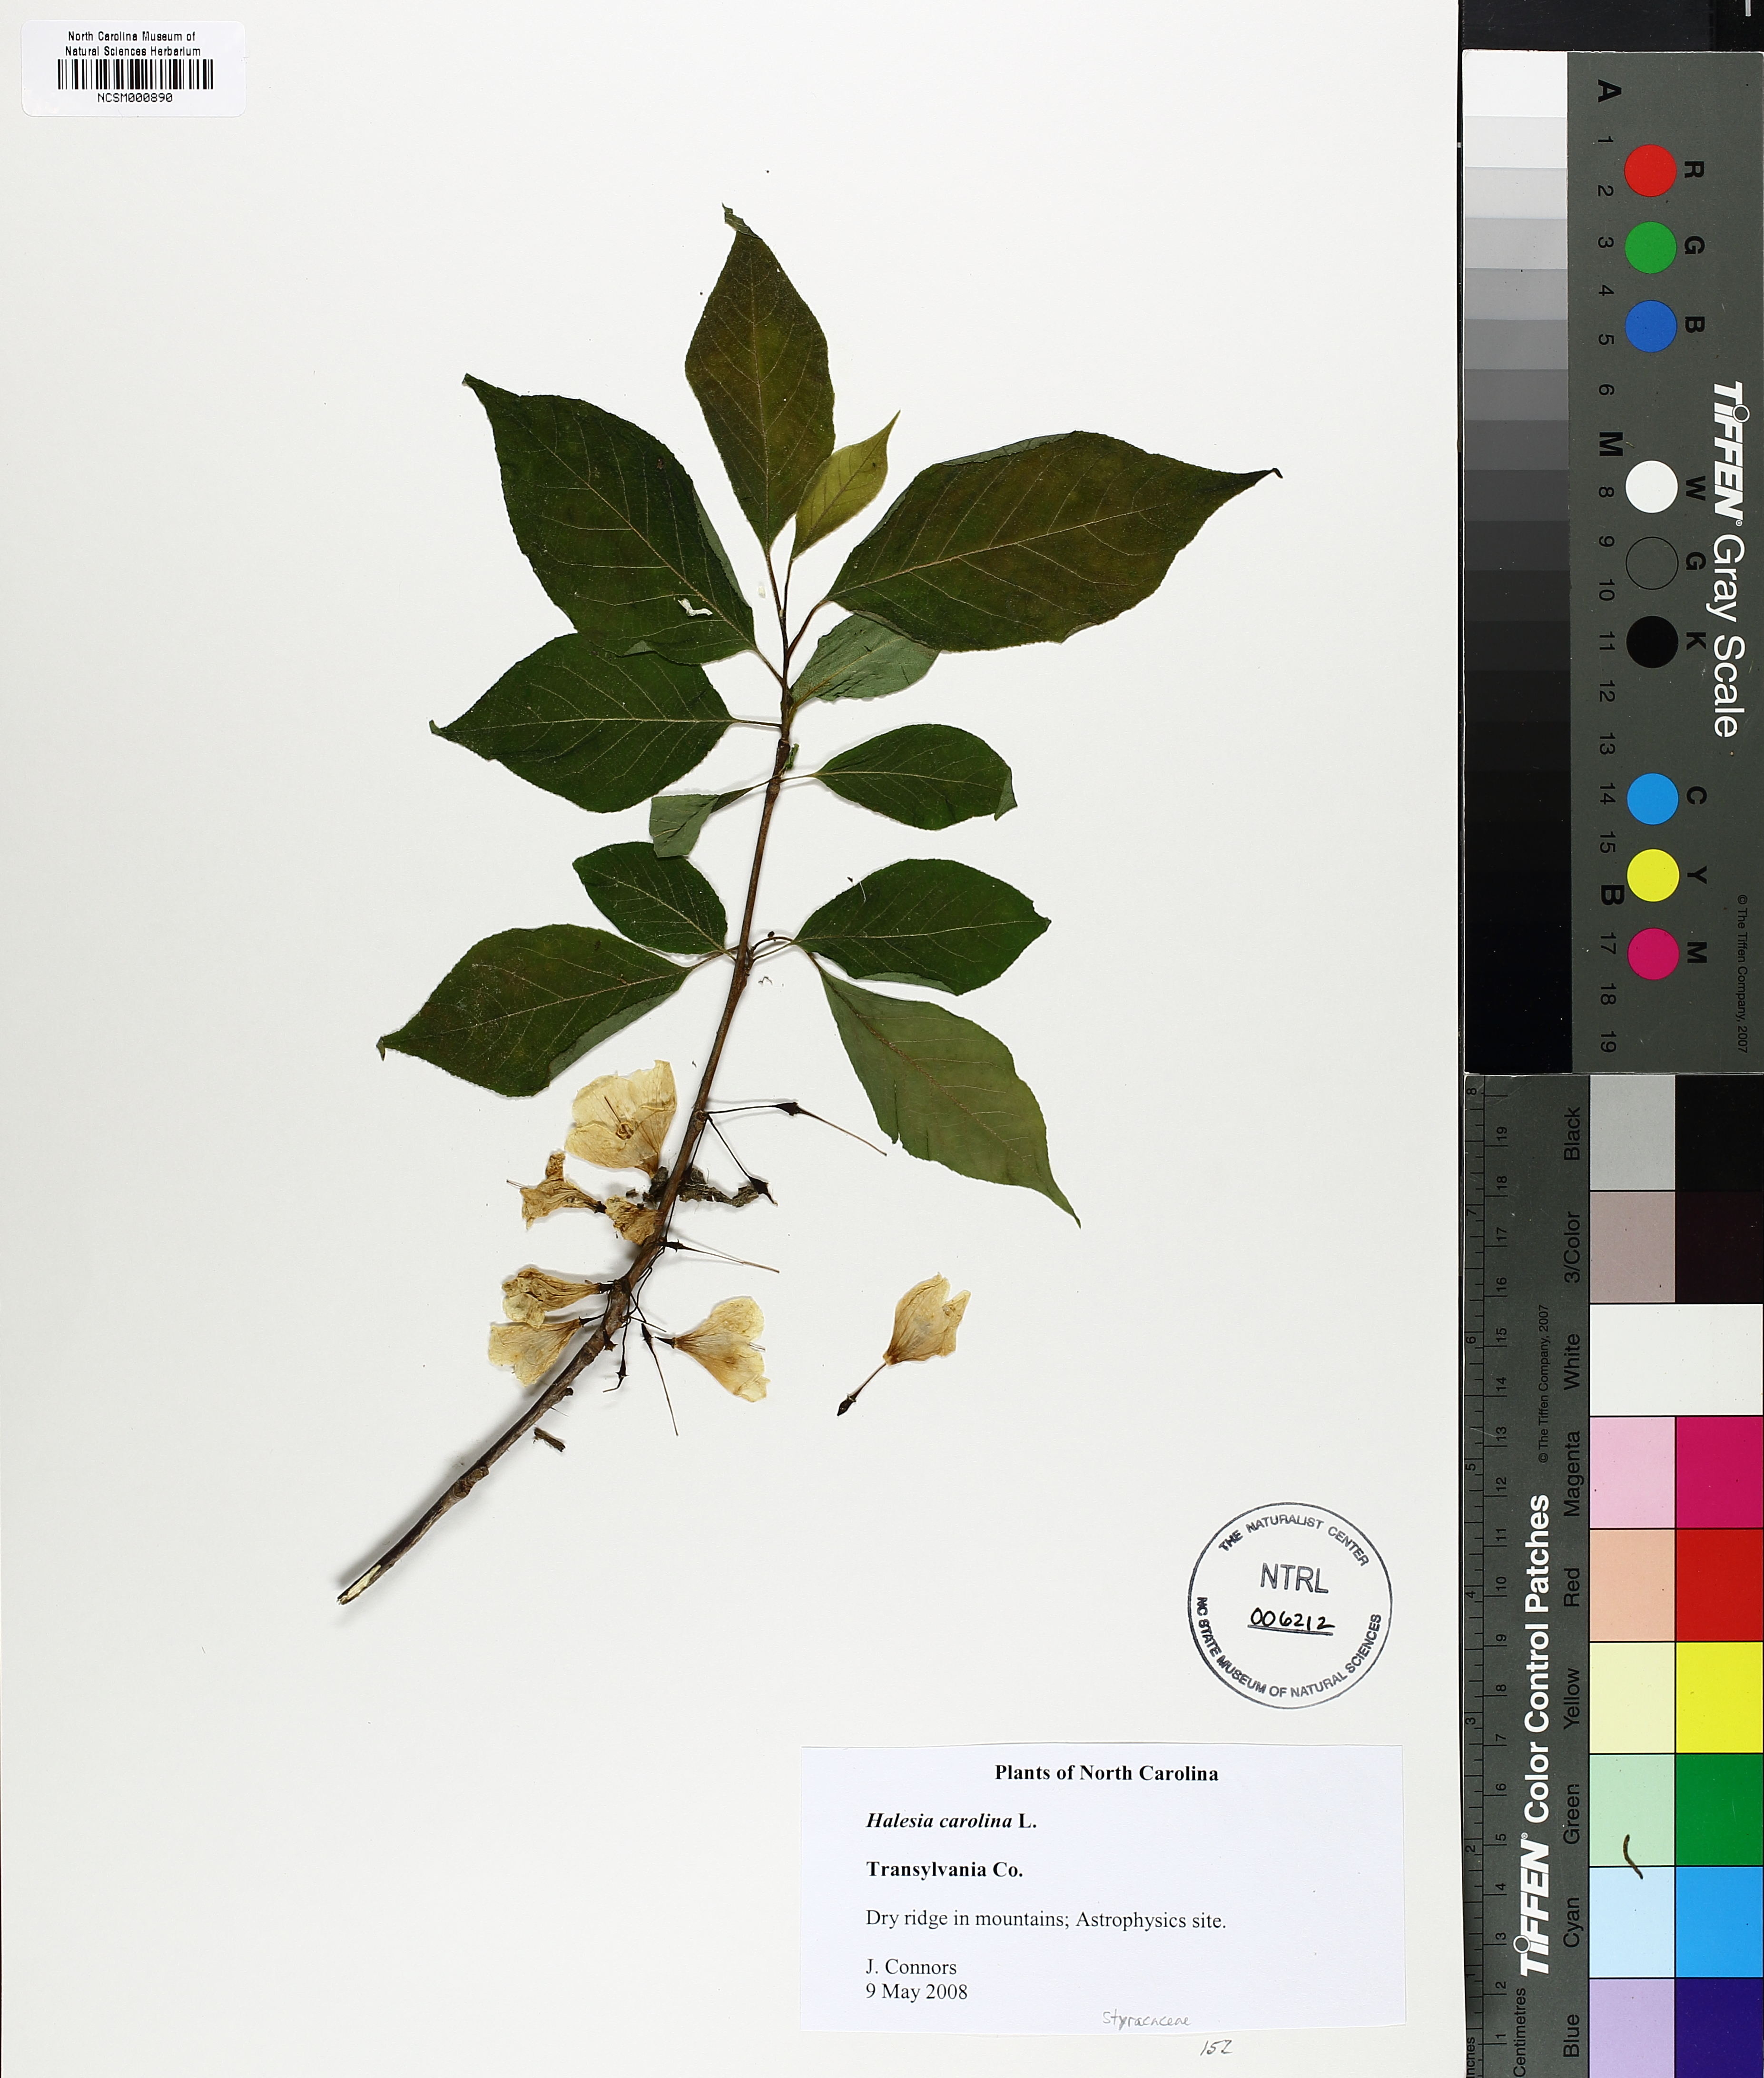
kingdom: Plantae
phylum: Tracheophyta
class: Magnoliopsida
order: Ericales
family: Styracaceae
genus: Halesia
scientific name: Halesia carolina
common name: Carolina silverbell
